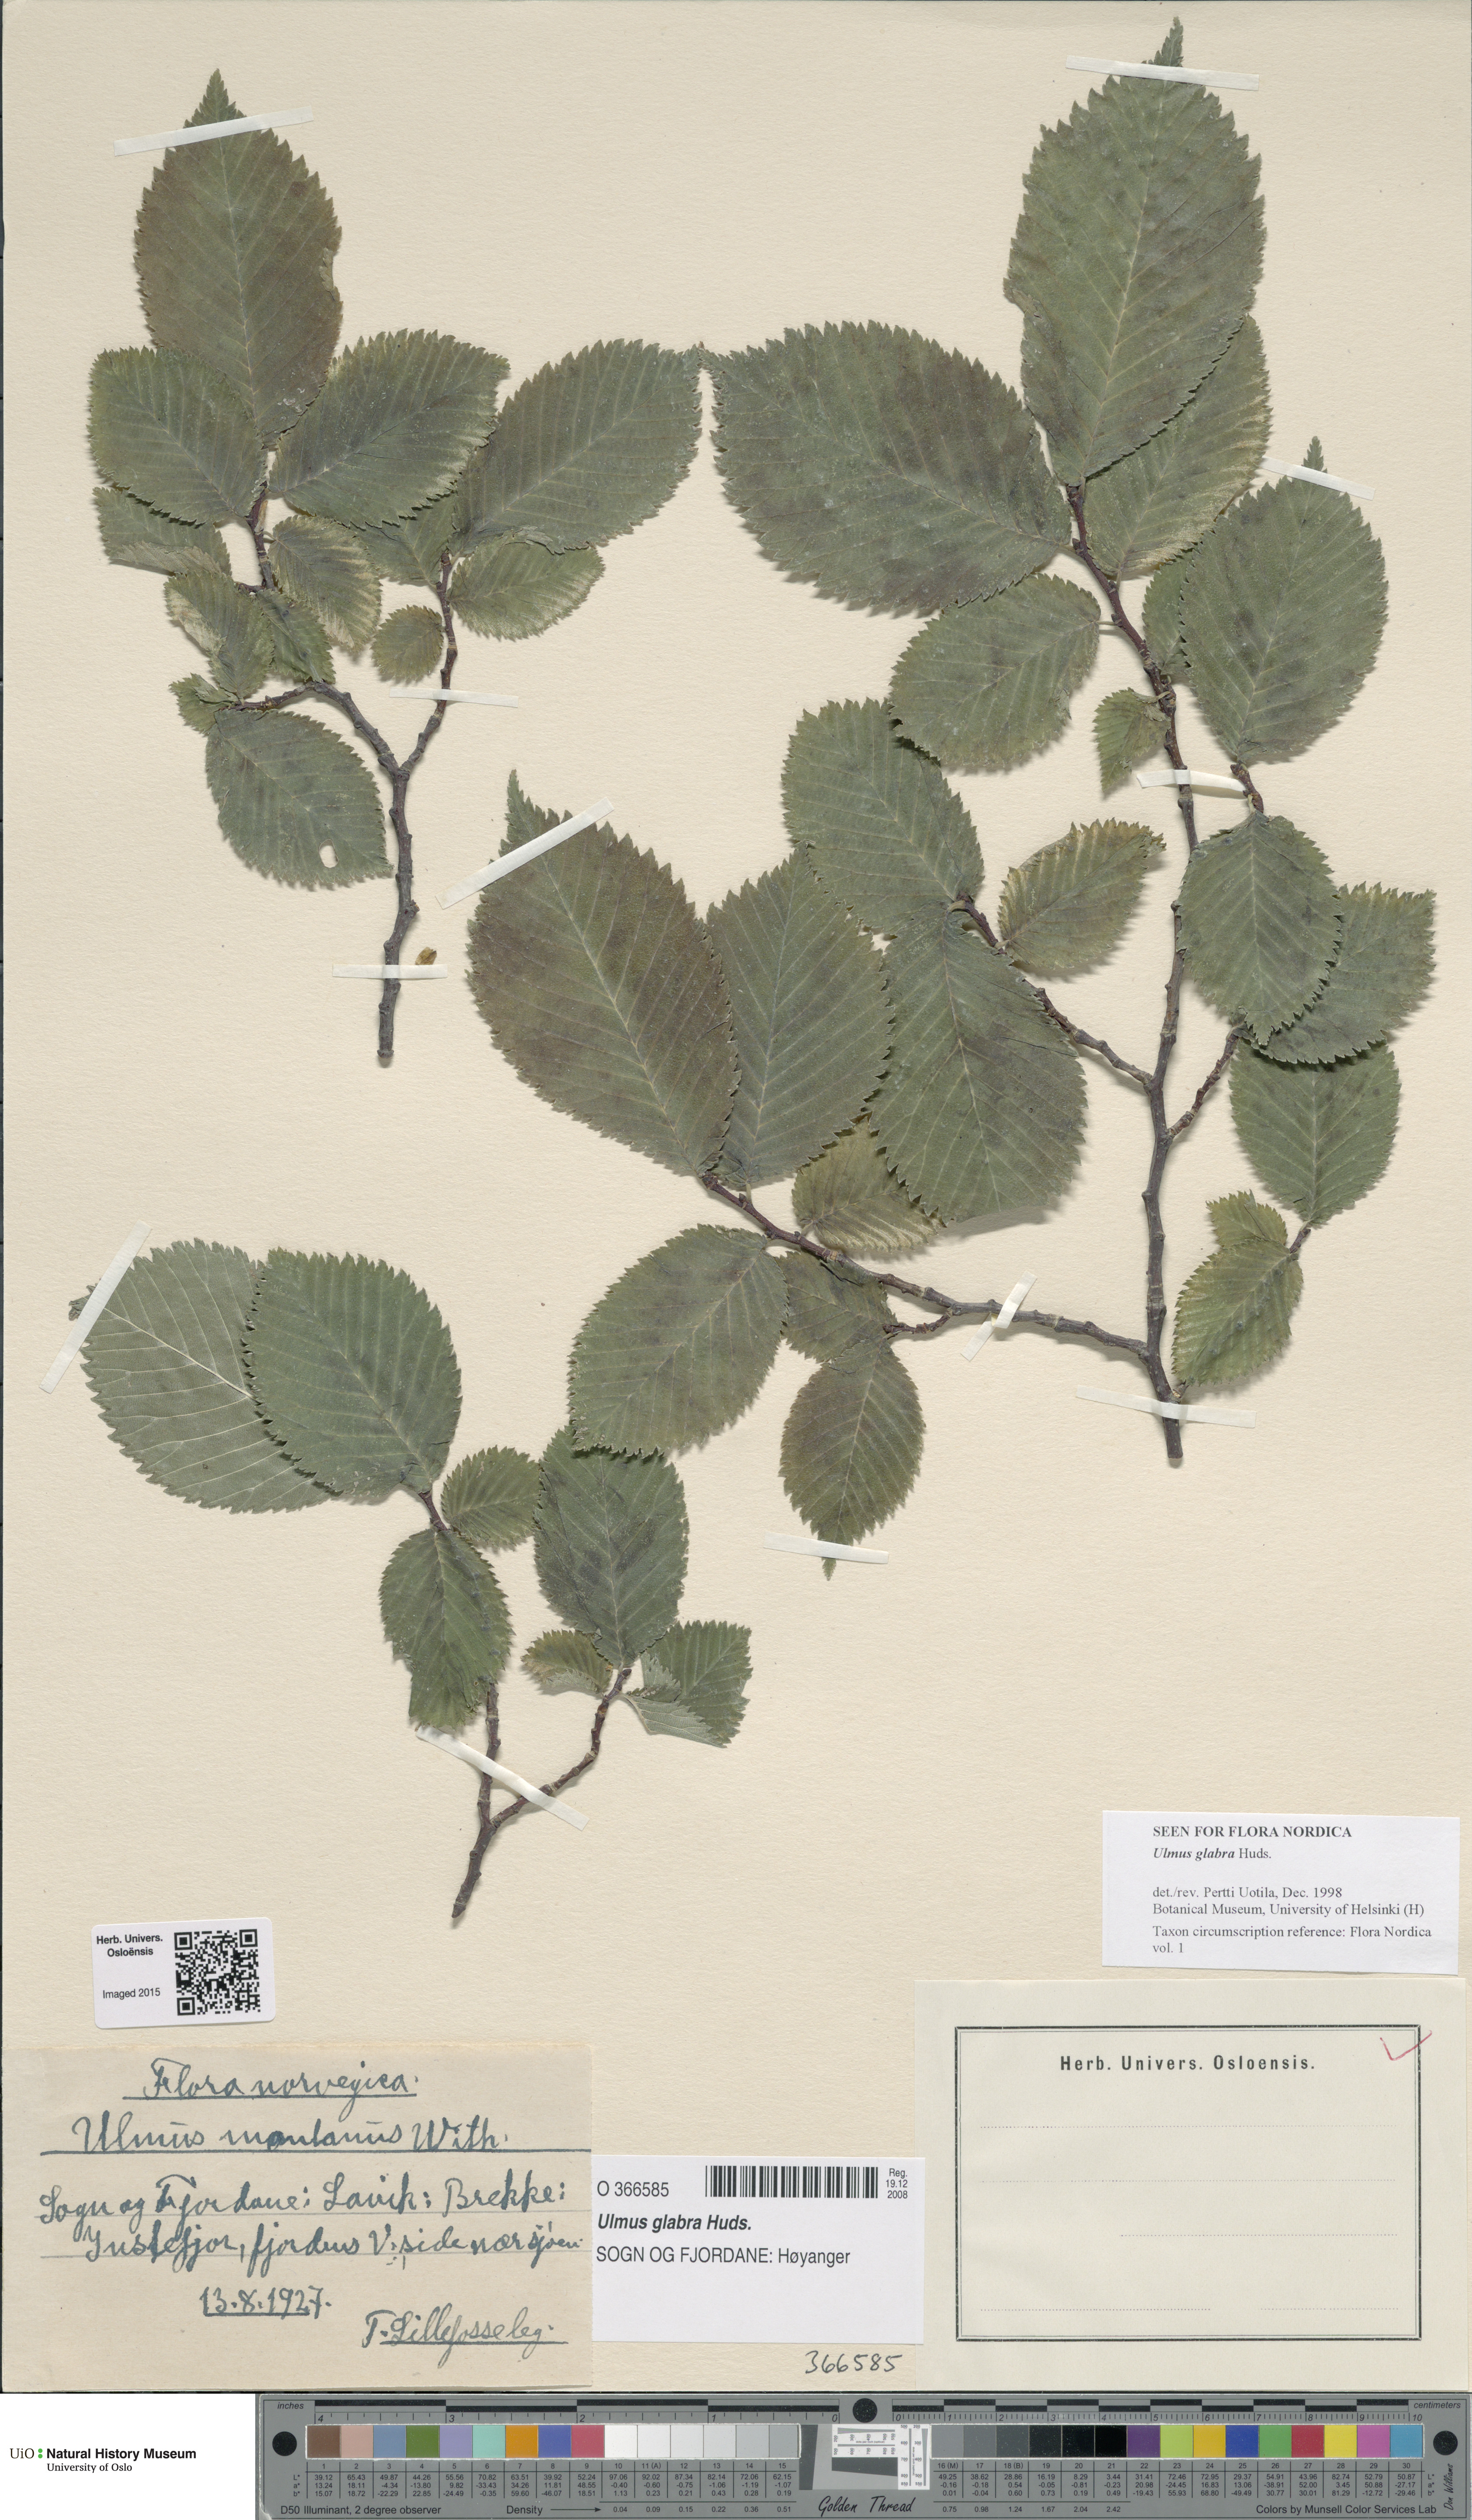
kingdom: Plantae
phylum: Tracheophyta
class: Magnoliopsida
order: Rosales
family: Ulmaceae
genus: Ulmus
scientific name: Ulmus glabra
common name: Wych elm
